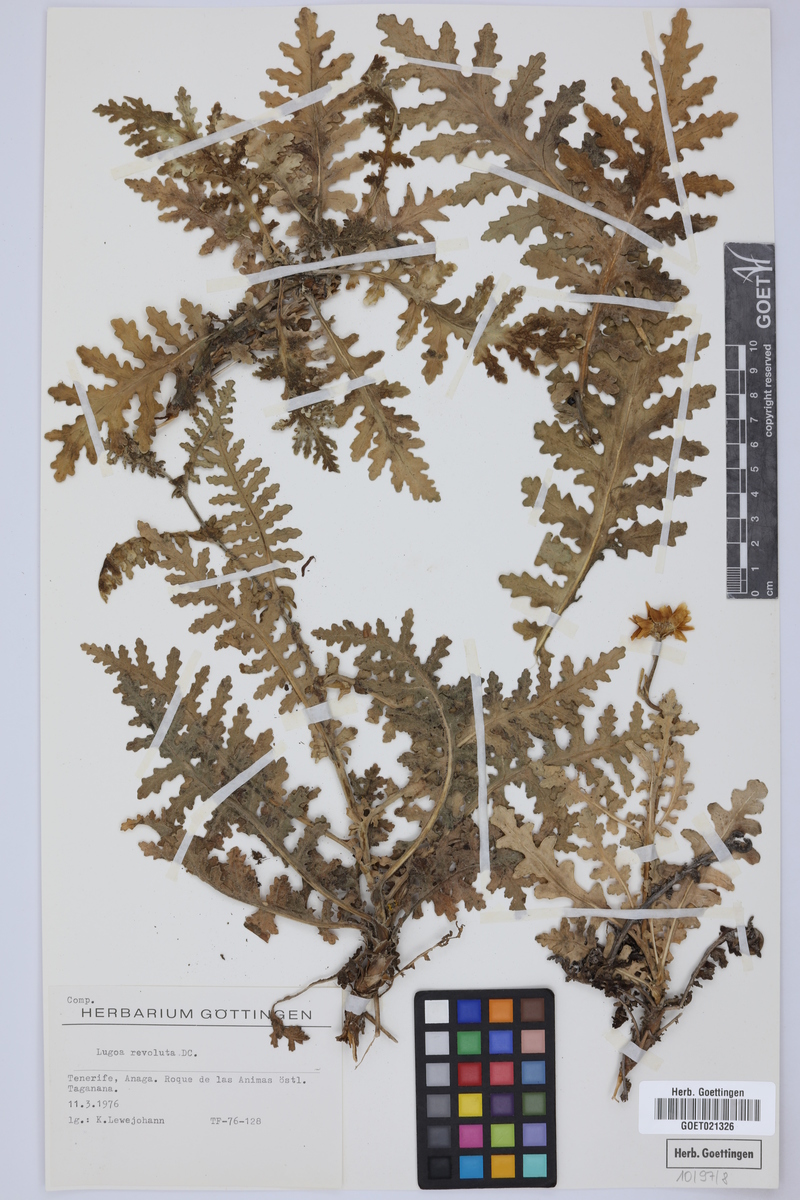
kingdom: Plantae
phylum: Tracheophyta
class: Magnoliopsida
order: Asterales
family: Asteraceae
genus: Gonospermum
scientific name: Gonospermum revolutum
